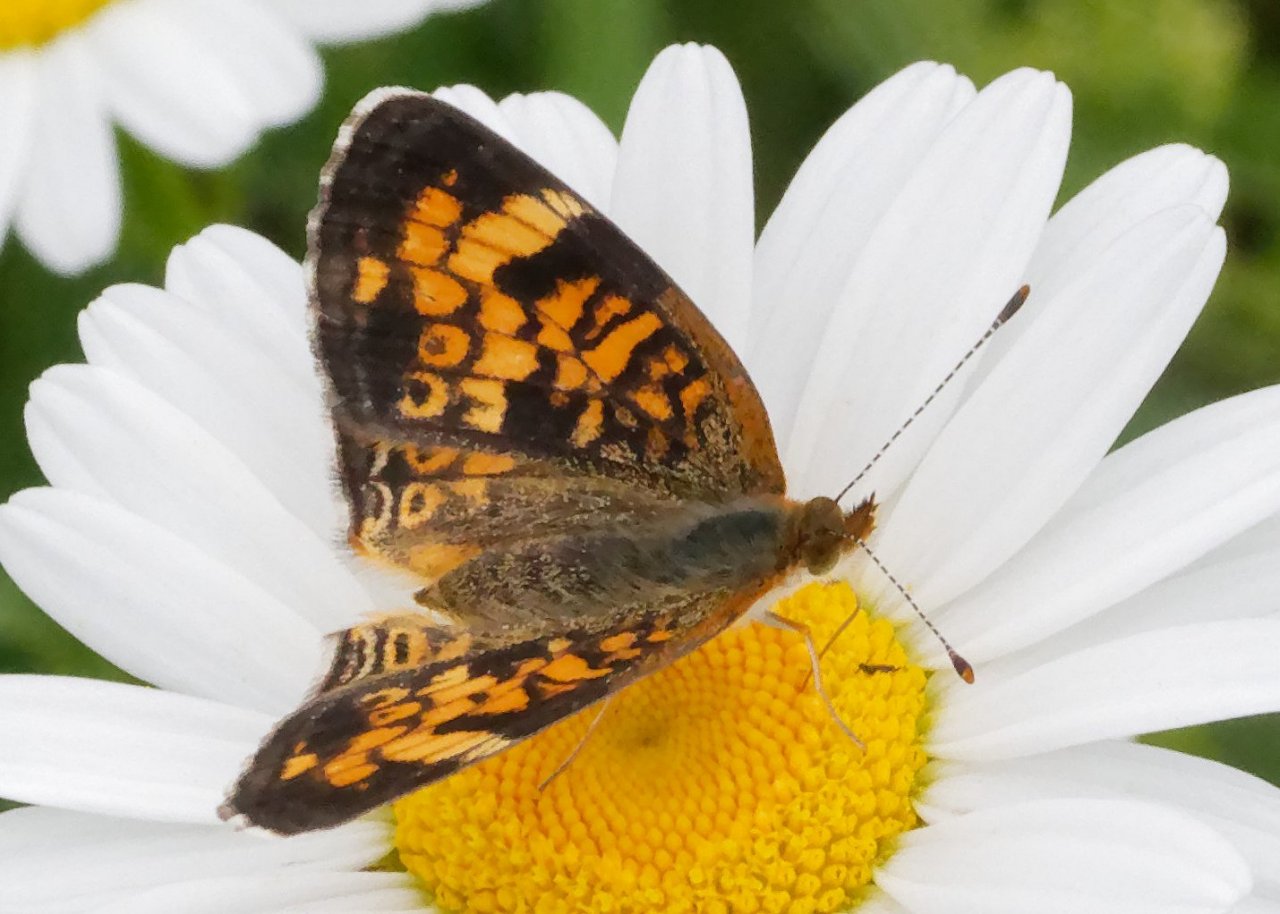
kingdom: Animalia
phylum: Arthropoda
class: Insecta
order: Lepidoptera
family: Nymphalidae
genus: Phyciodes
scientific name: Phyciodes
